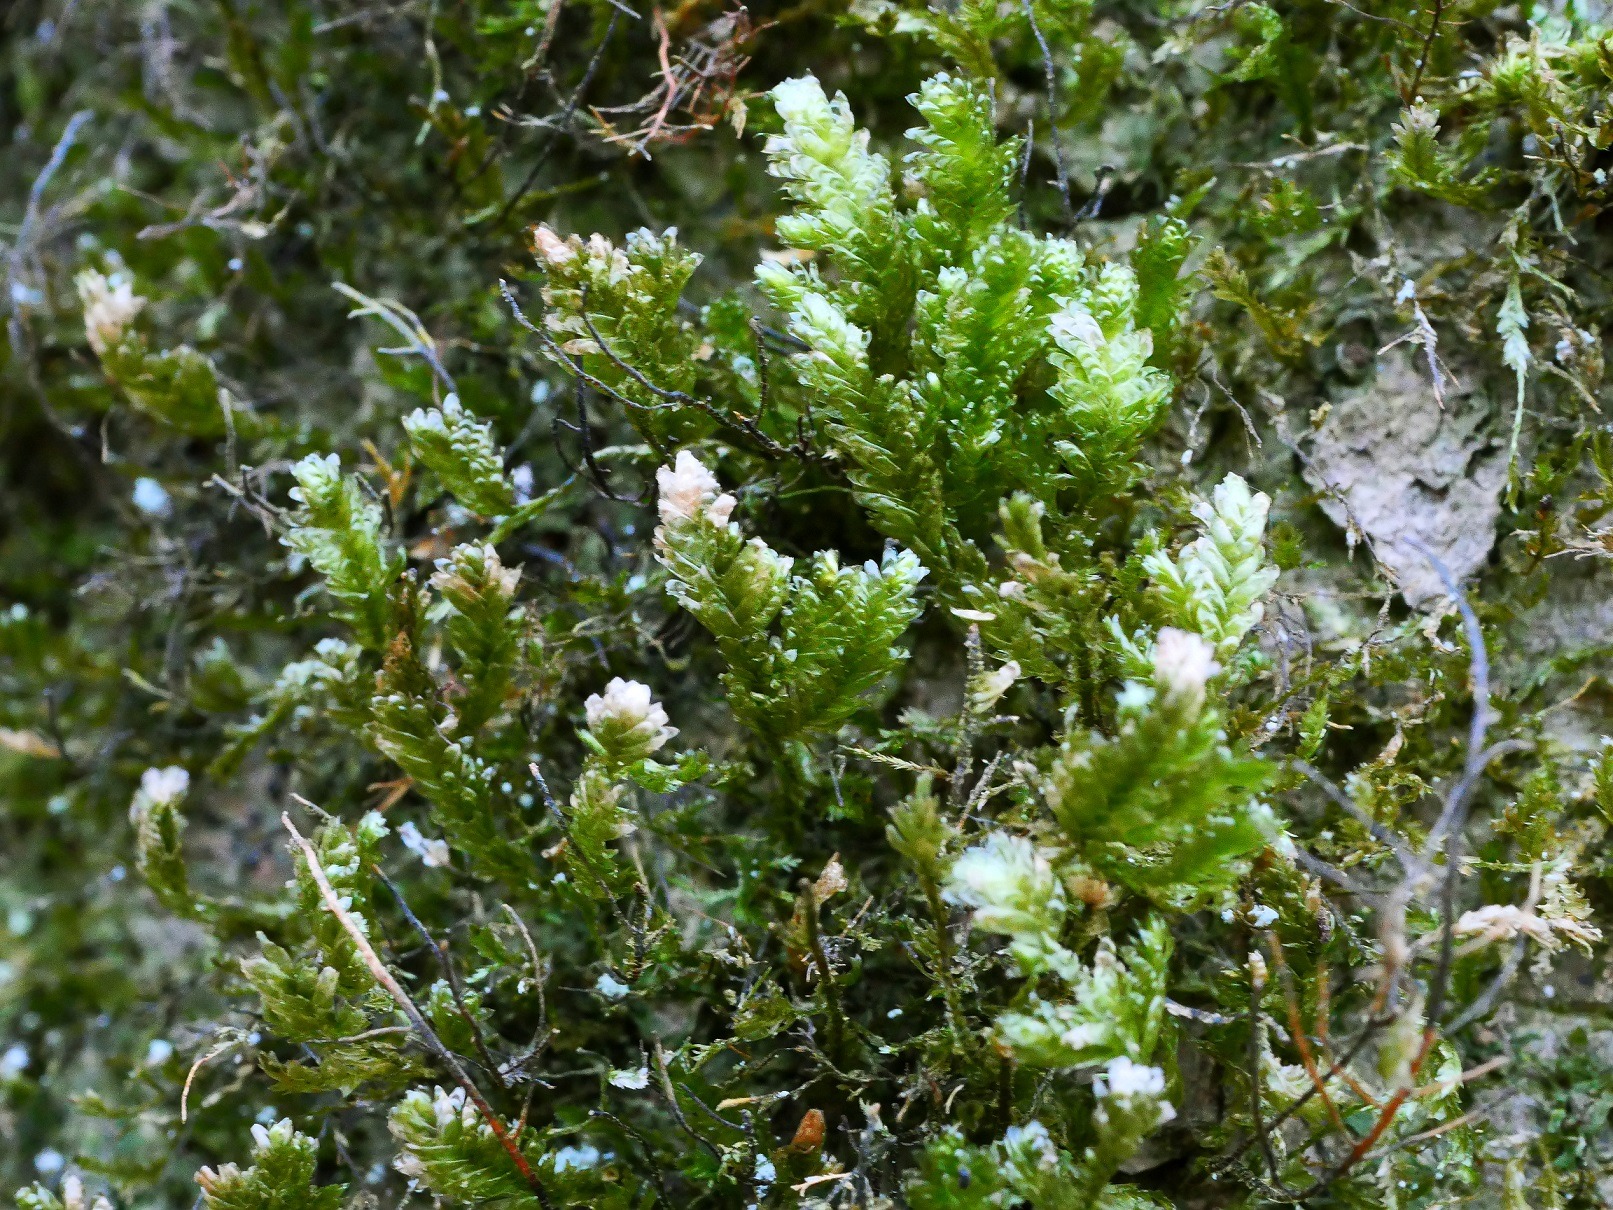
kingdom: Plantae
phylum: Bryophyta
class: Bryopsida
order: Hypnales
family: Neckeraceae
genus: Exsertotheca
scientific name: Exsertotheca crispa
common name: Kruset fladmos
